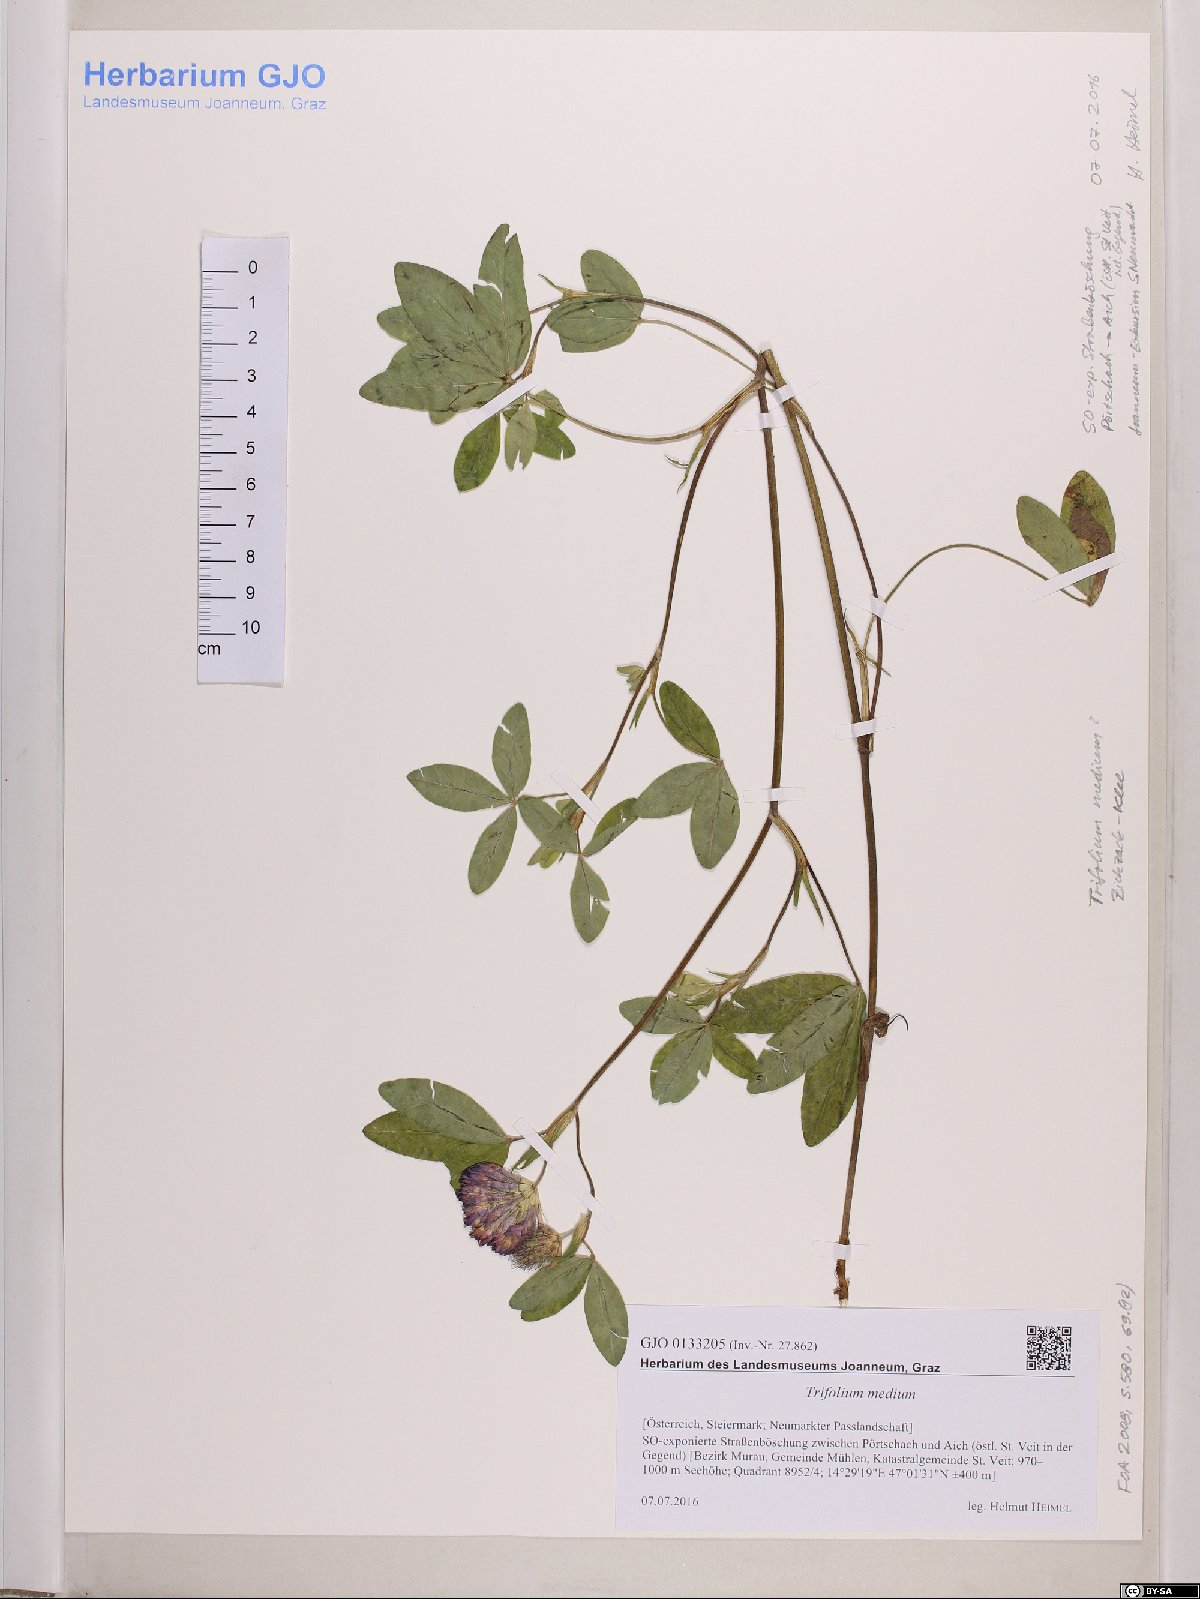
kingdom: Plantae
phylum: Tracheophyta
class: Magnoliopsida
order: Fabales
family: Fabaceae
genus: Trifolium
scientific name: Trifolium medium
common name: Zigzag clover
